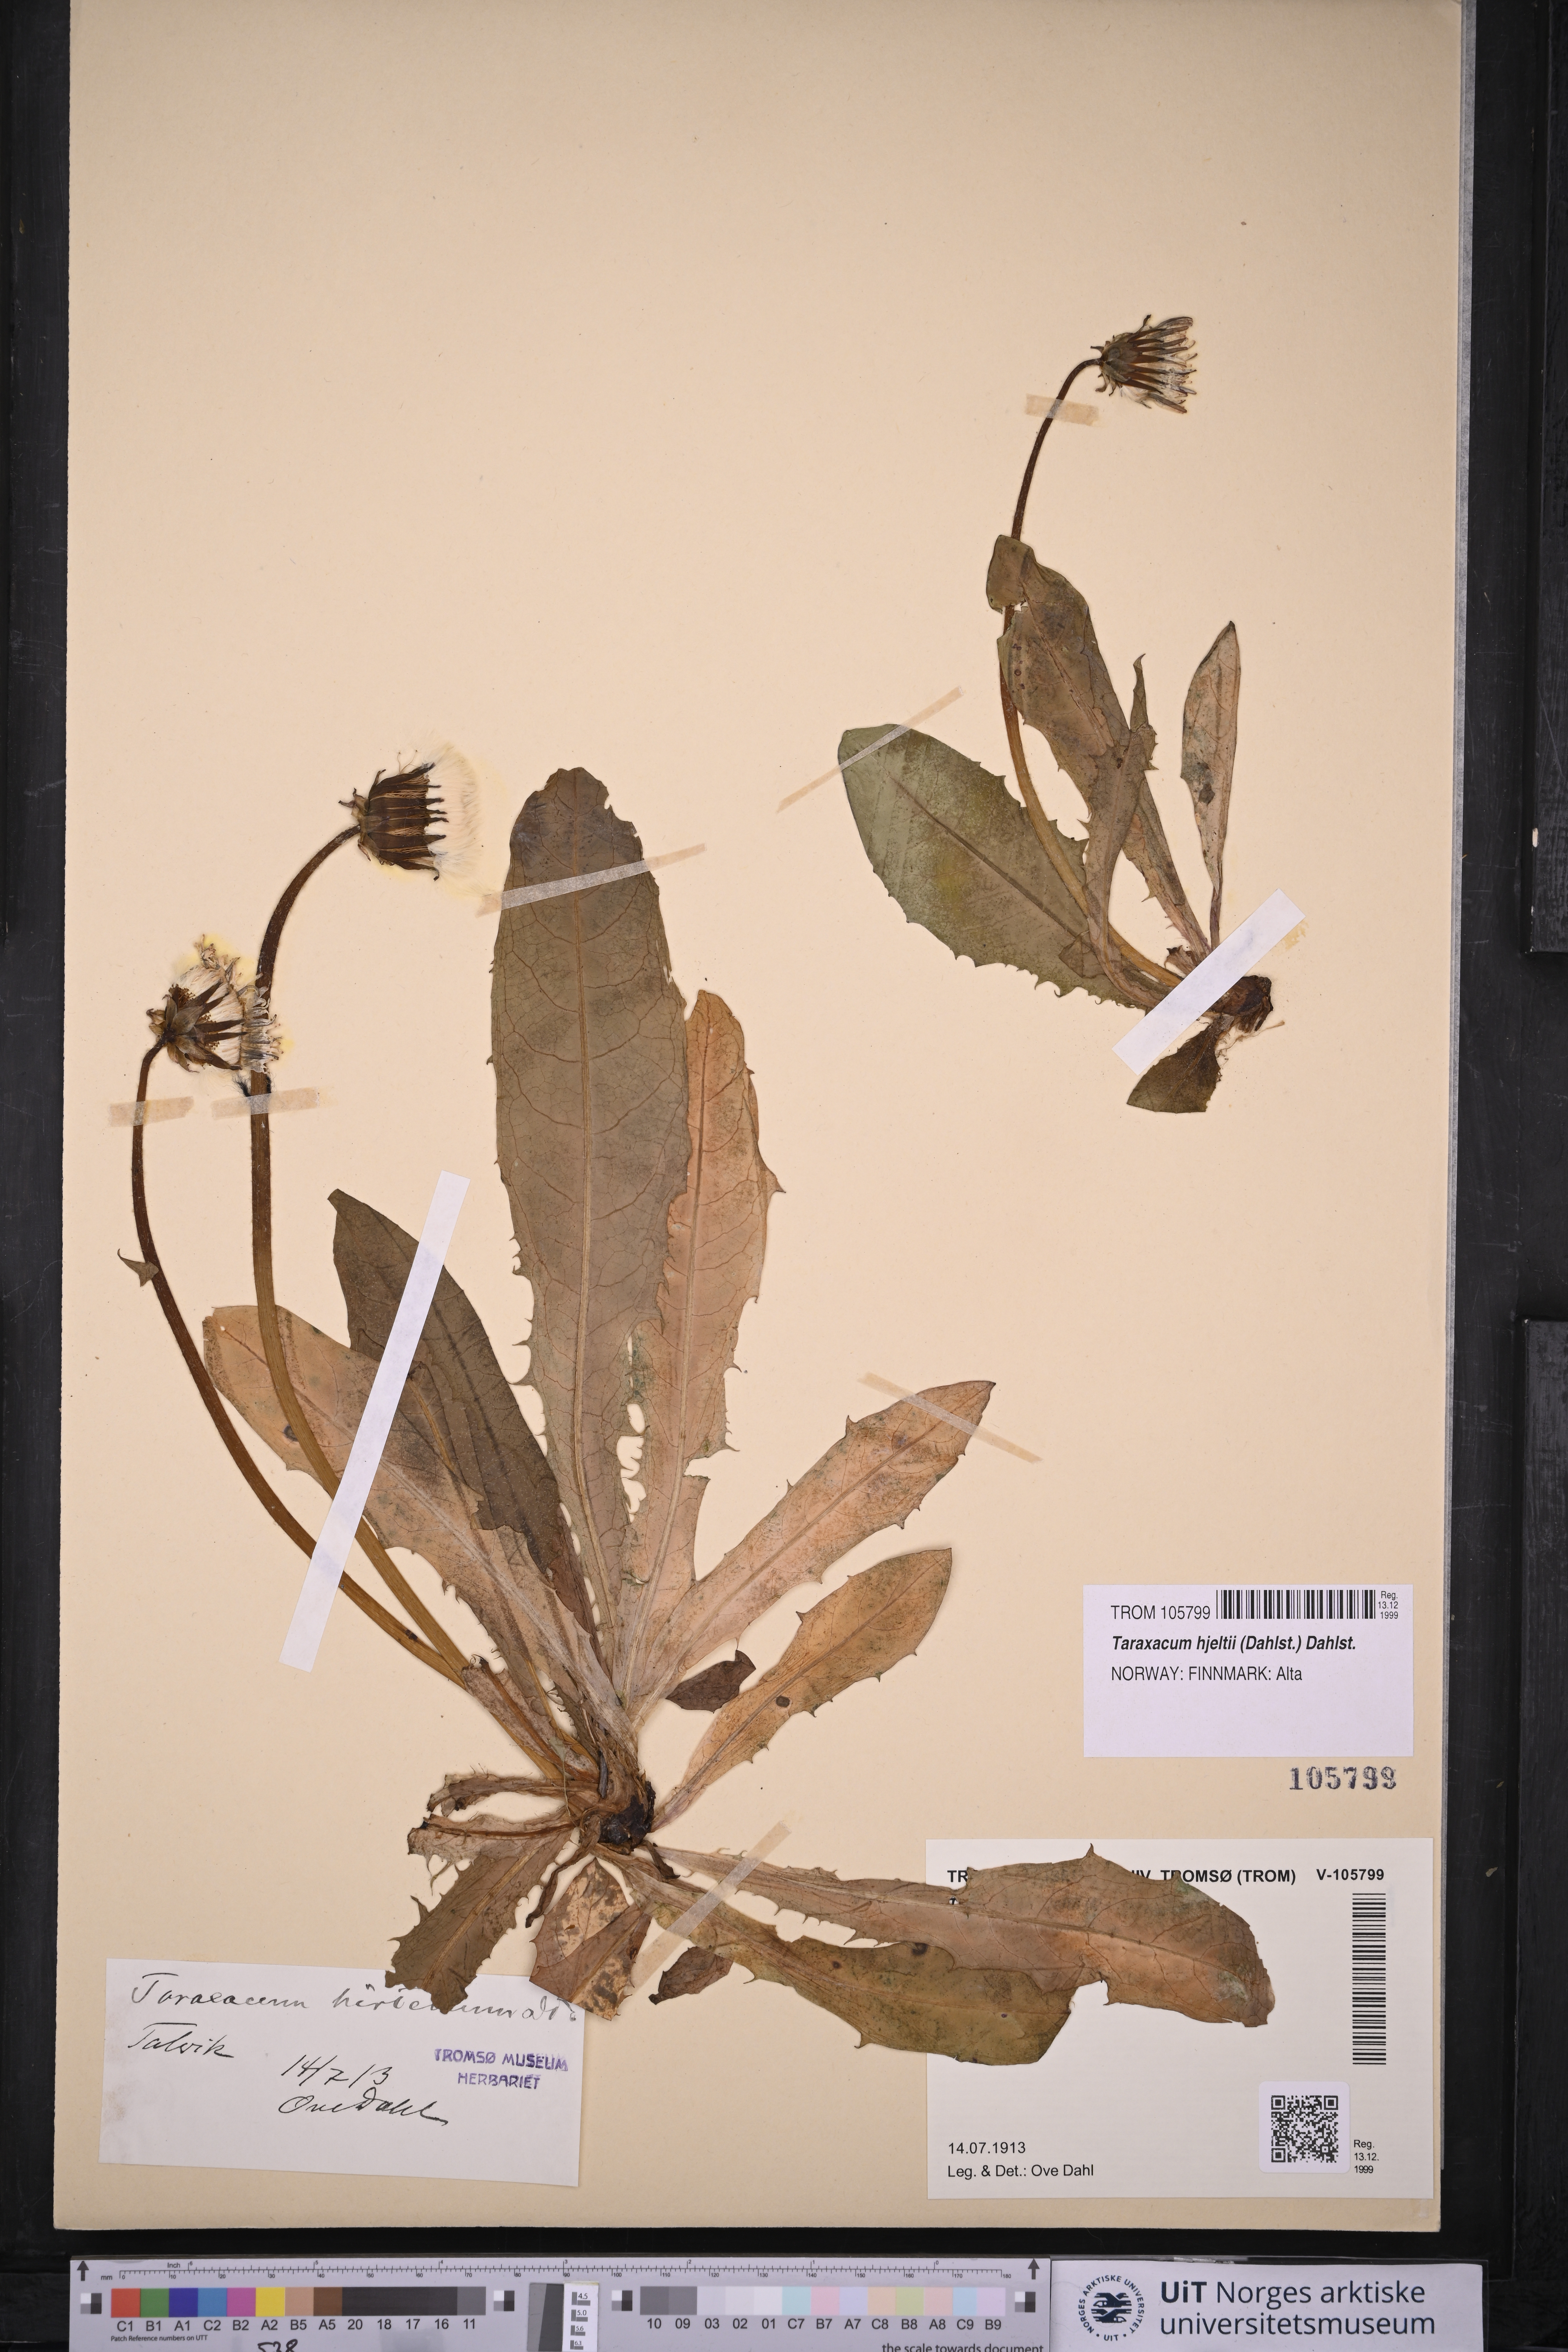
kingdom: Plantae
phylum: Tracheophyta
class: Magnoliopsida
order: Asterales
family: Asteraceae
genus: Taraxacum
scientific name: Taraxacum hjeltii
